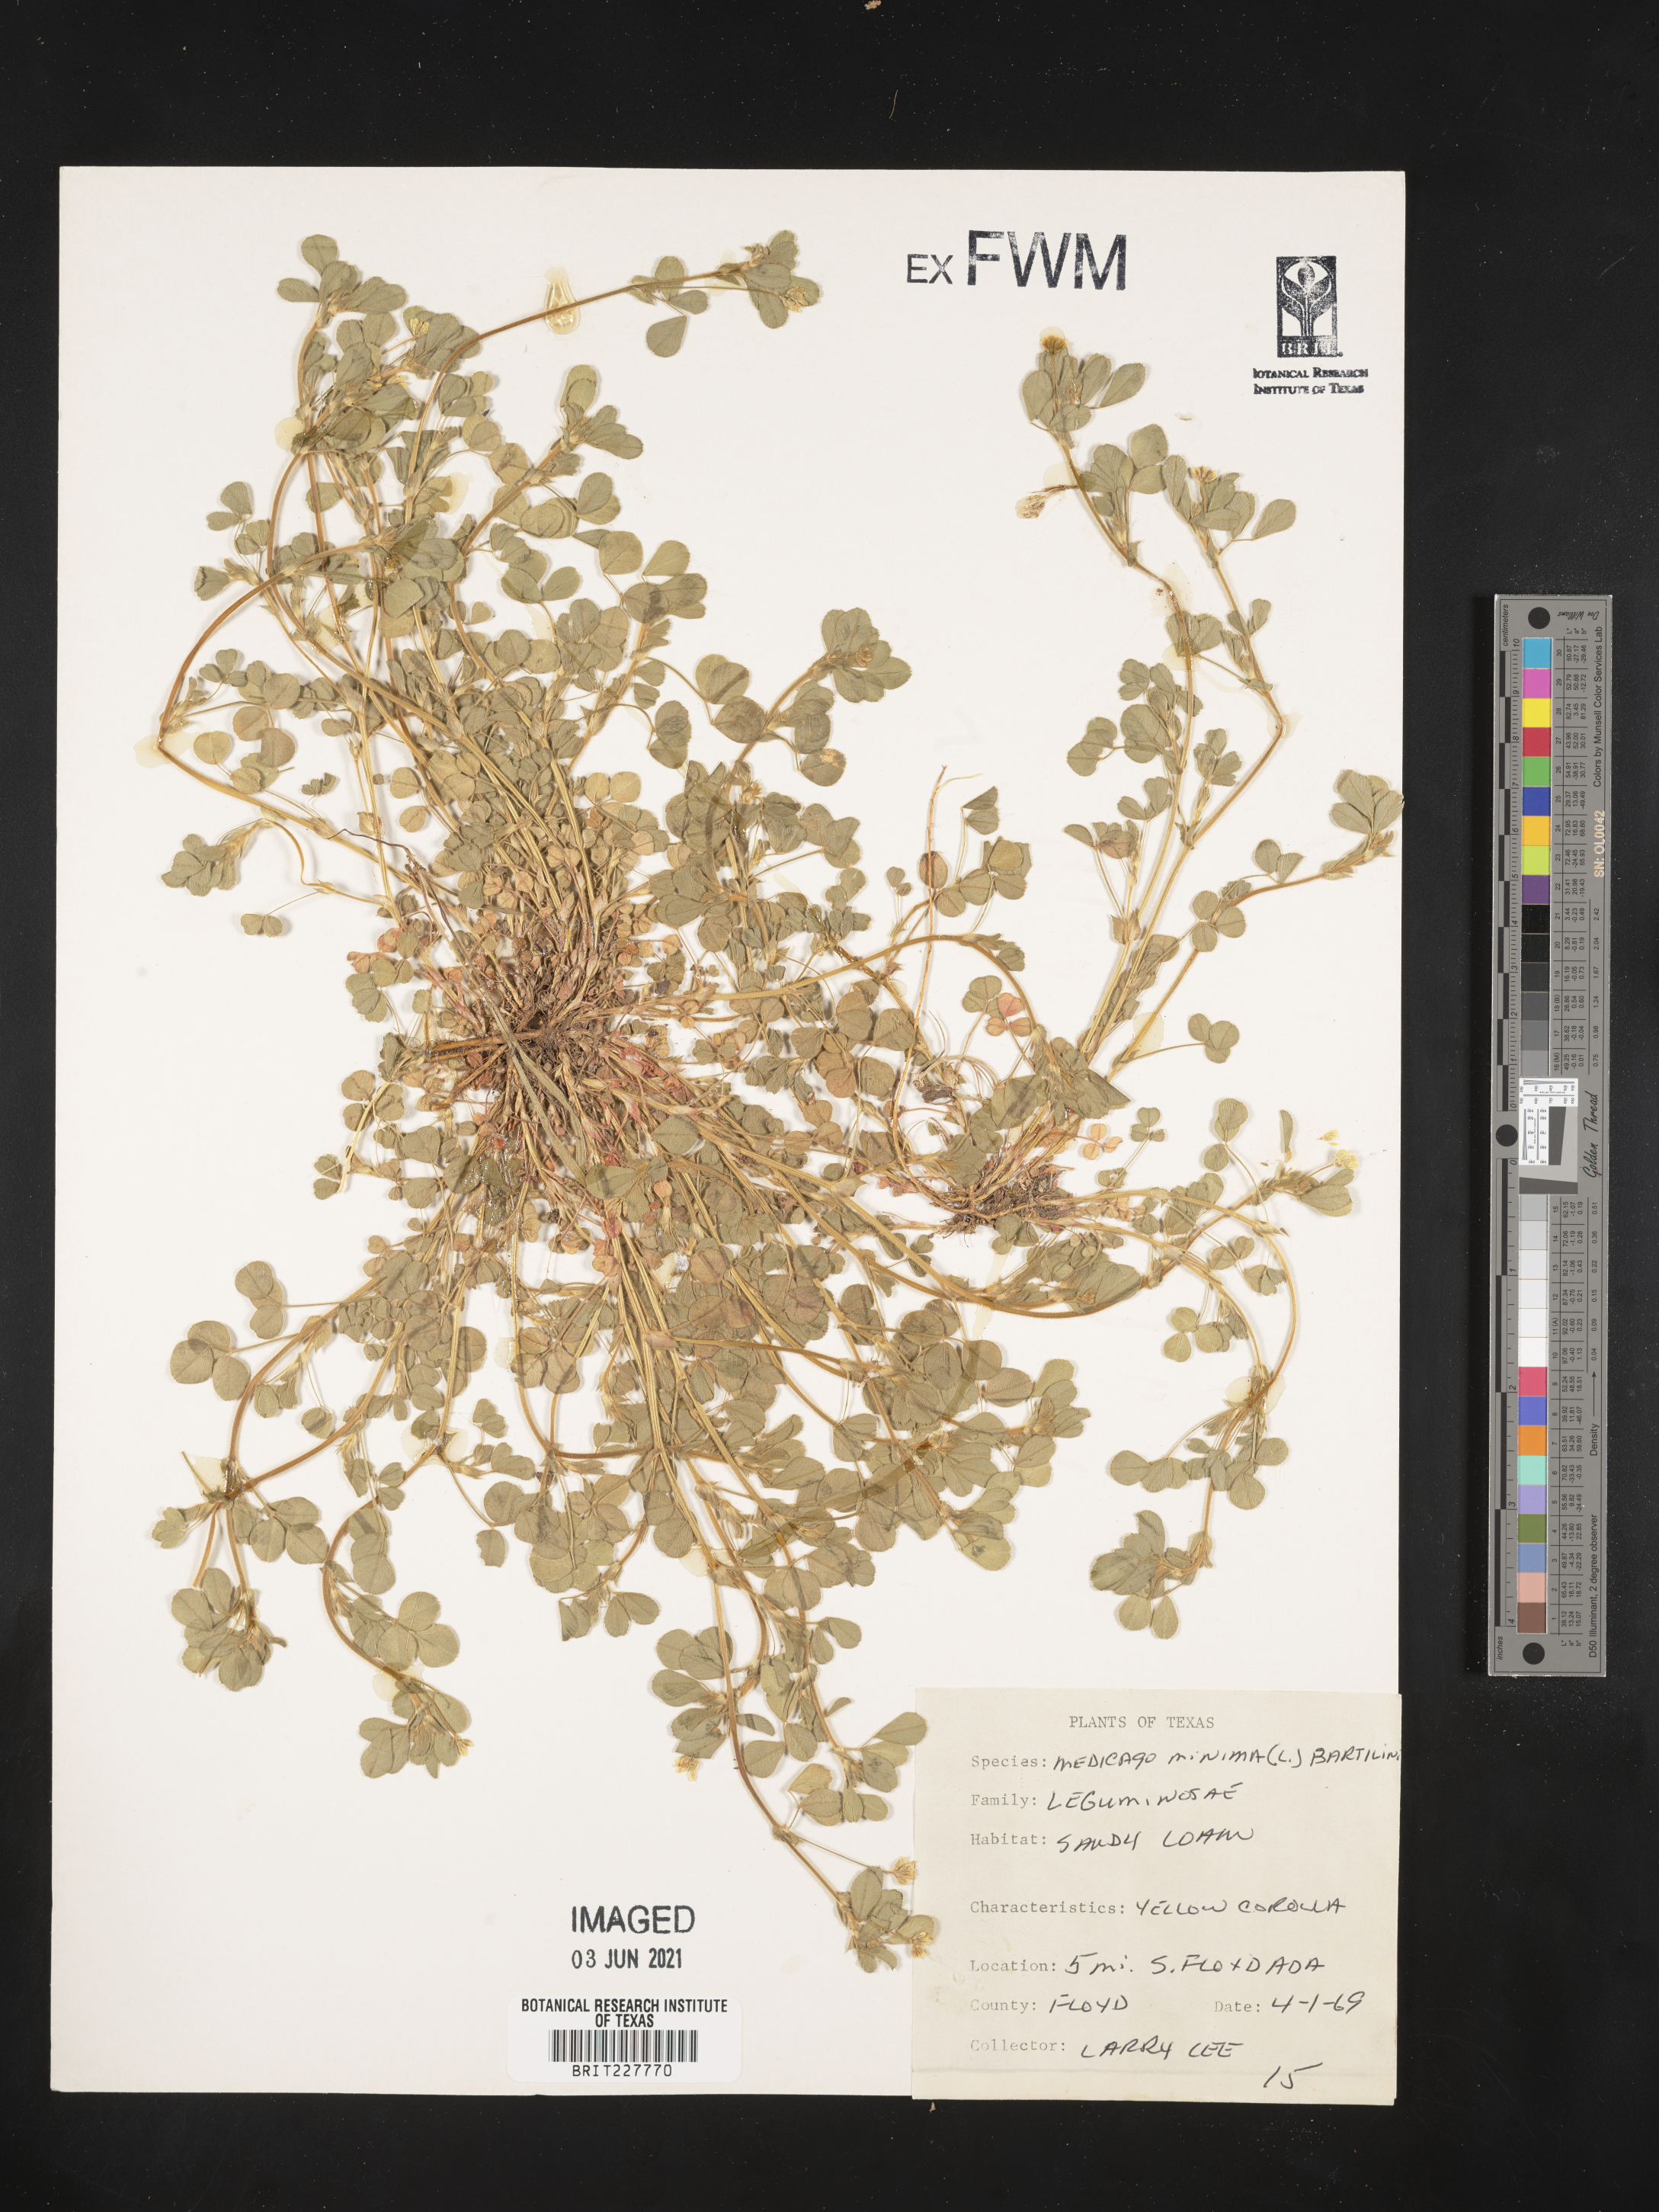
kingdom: Plantae
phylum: Tracheophyta
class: Magnoliopsida
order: Fabales
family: Fabaceae
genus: Medicago
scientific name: Medicago minima
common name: Little bur-clover
